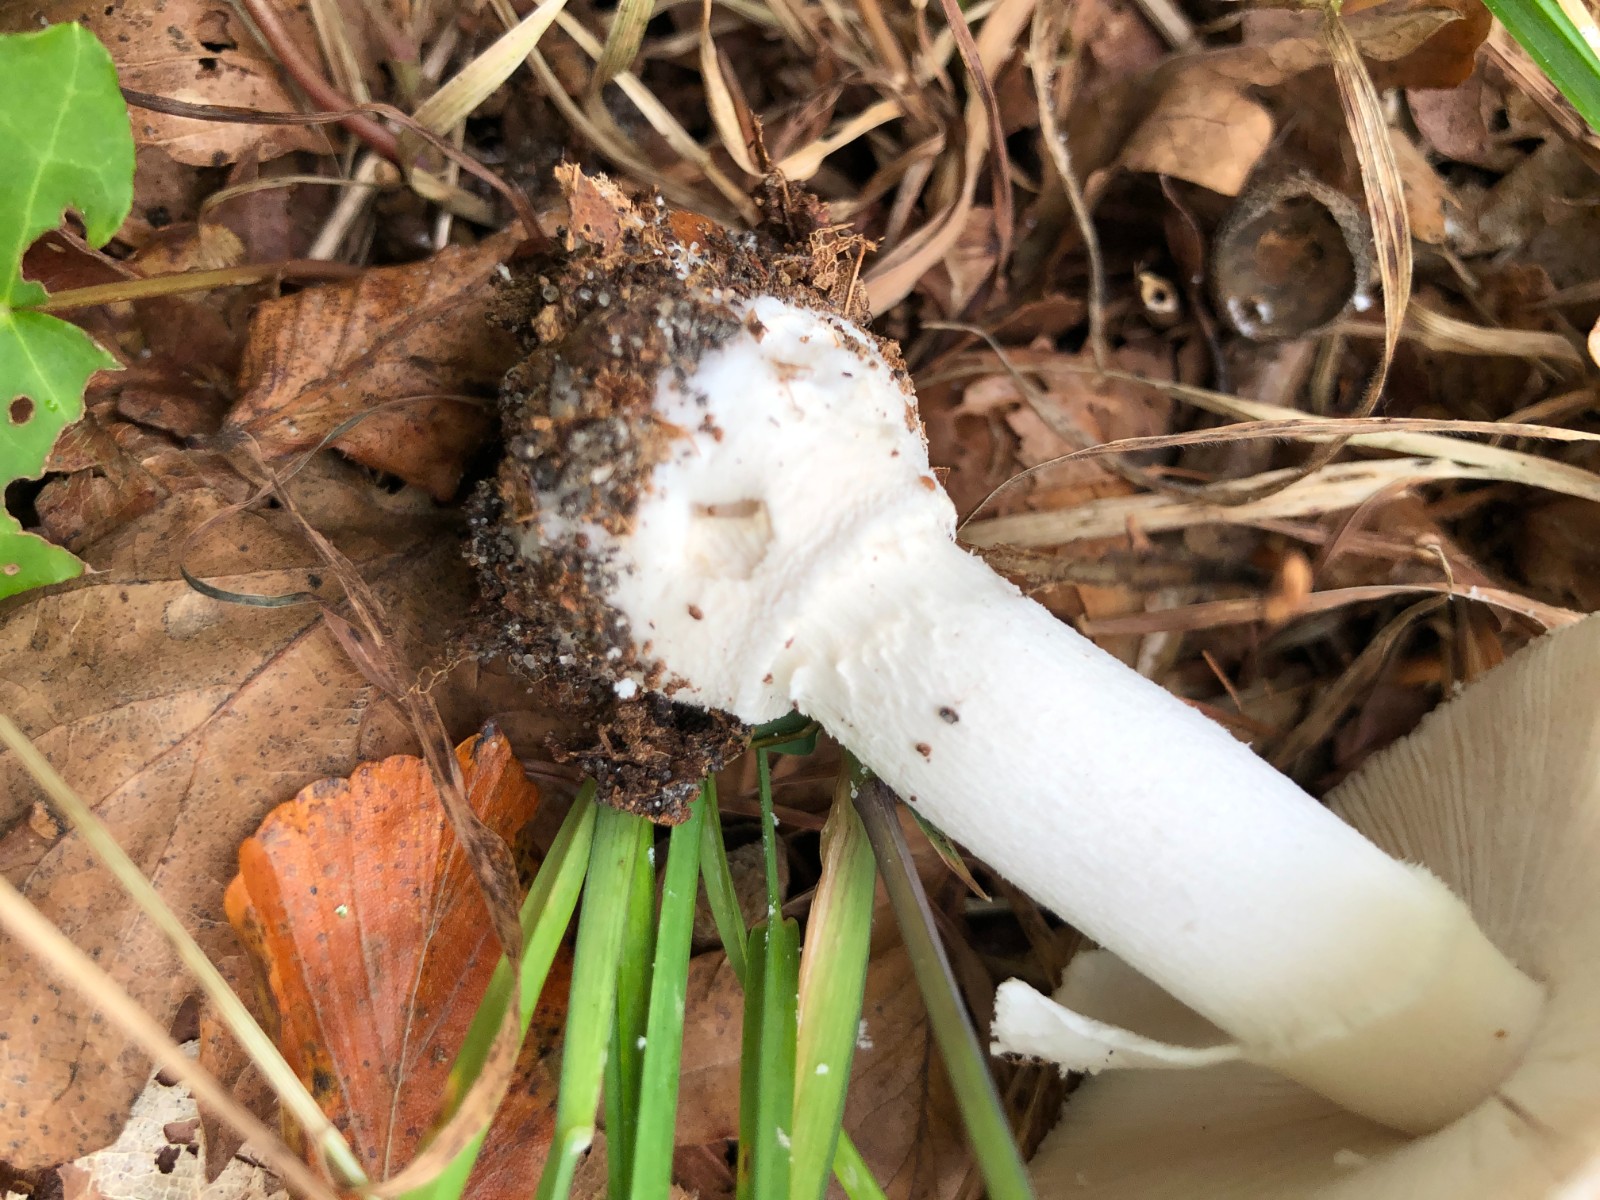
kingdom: Fungi
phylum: Basidiomycota
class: Agaricomycetes
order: Agaricales
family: Amanitaceae
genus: Amanita
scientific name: Amanita pantherina
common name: panter-fluesvamp
